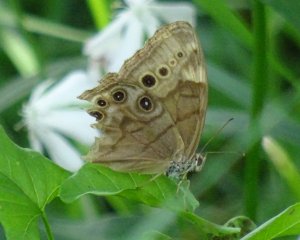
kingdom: Animalia
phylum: Arthropoda
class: Insecta
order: Lepidoptera
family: Nymphalidae
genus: Lethe
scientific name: Lethe anthedon
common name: Northern Pearly-Eye
